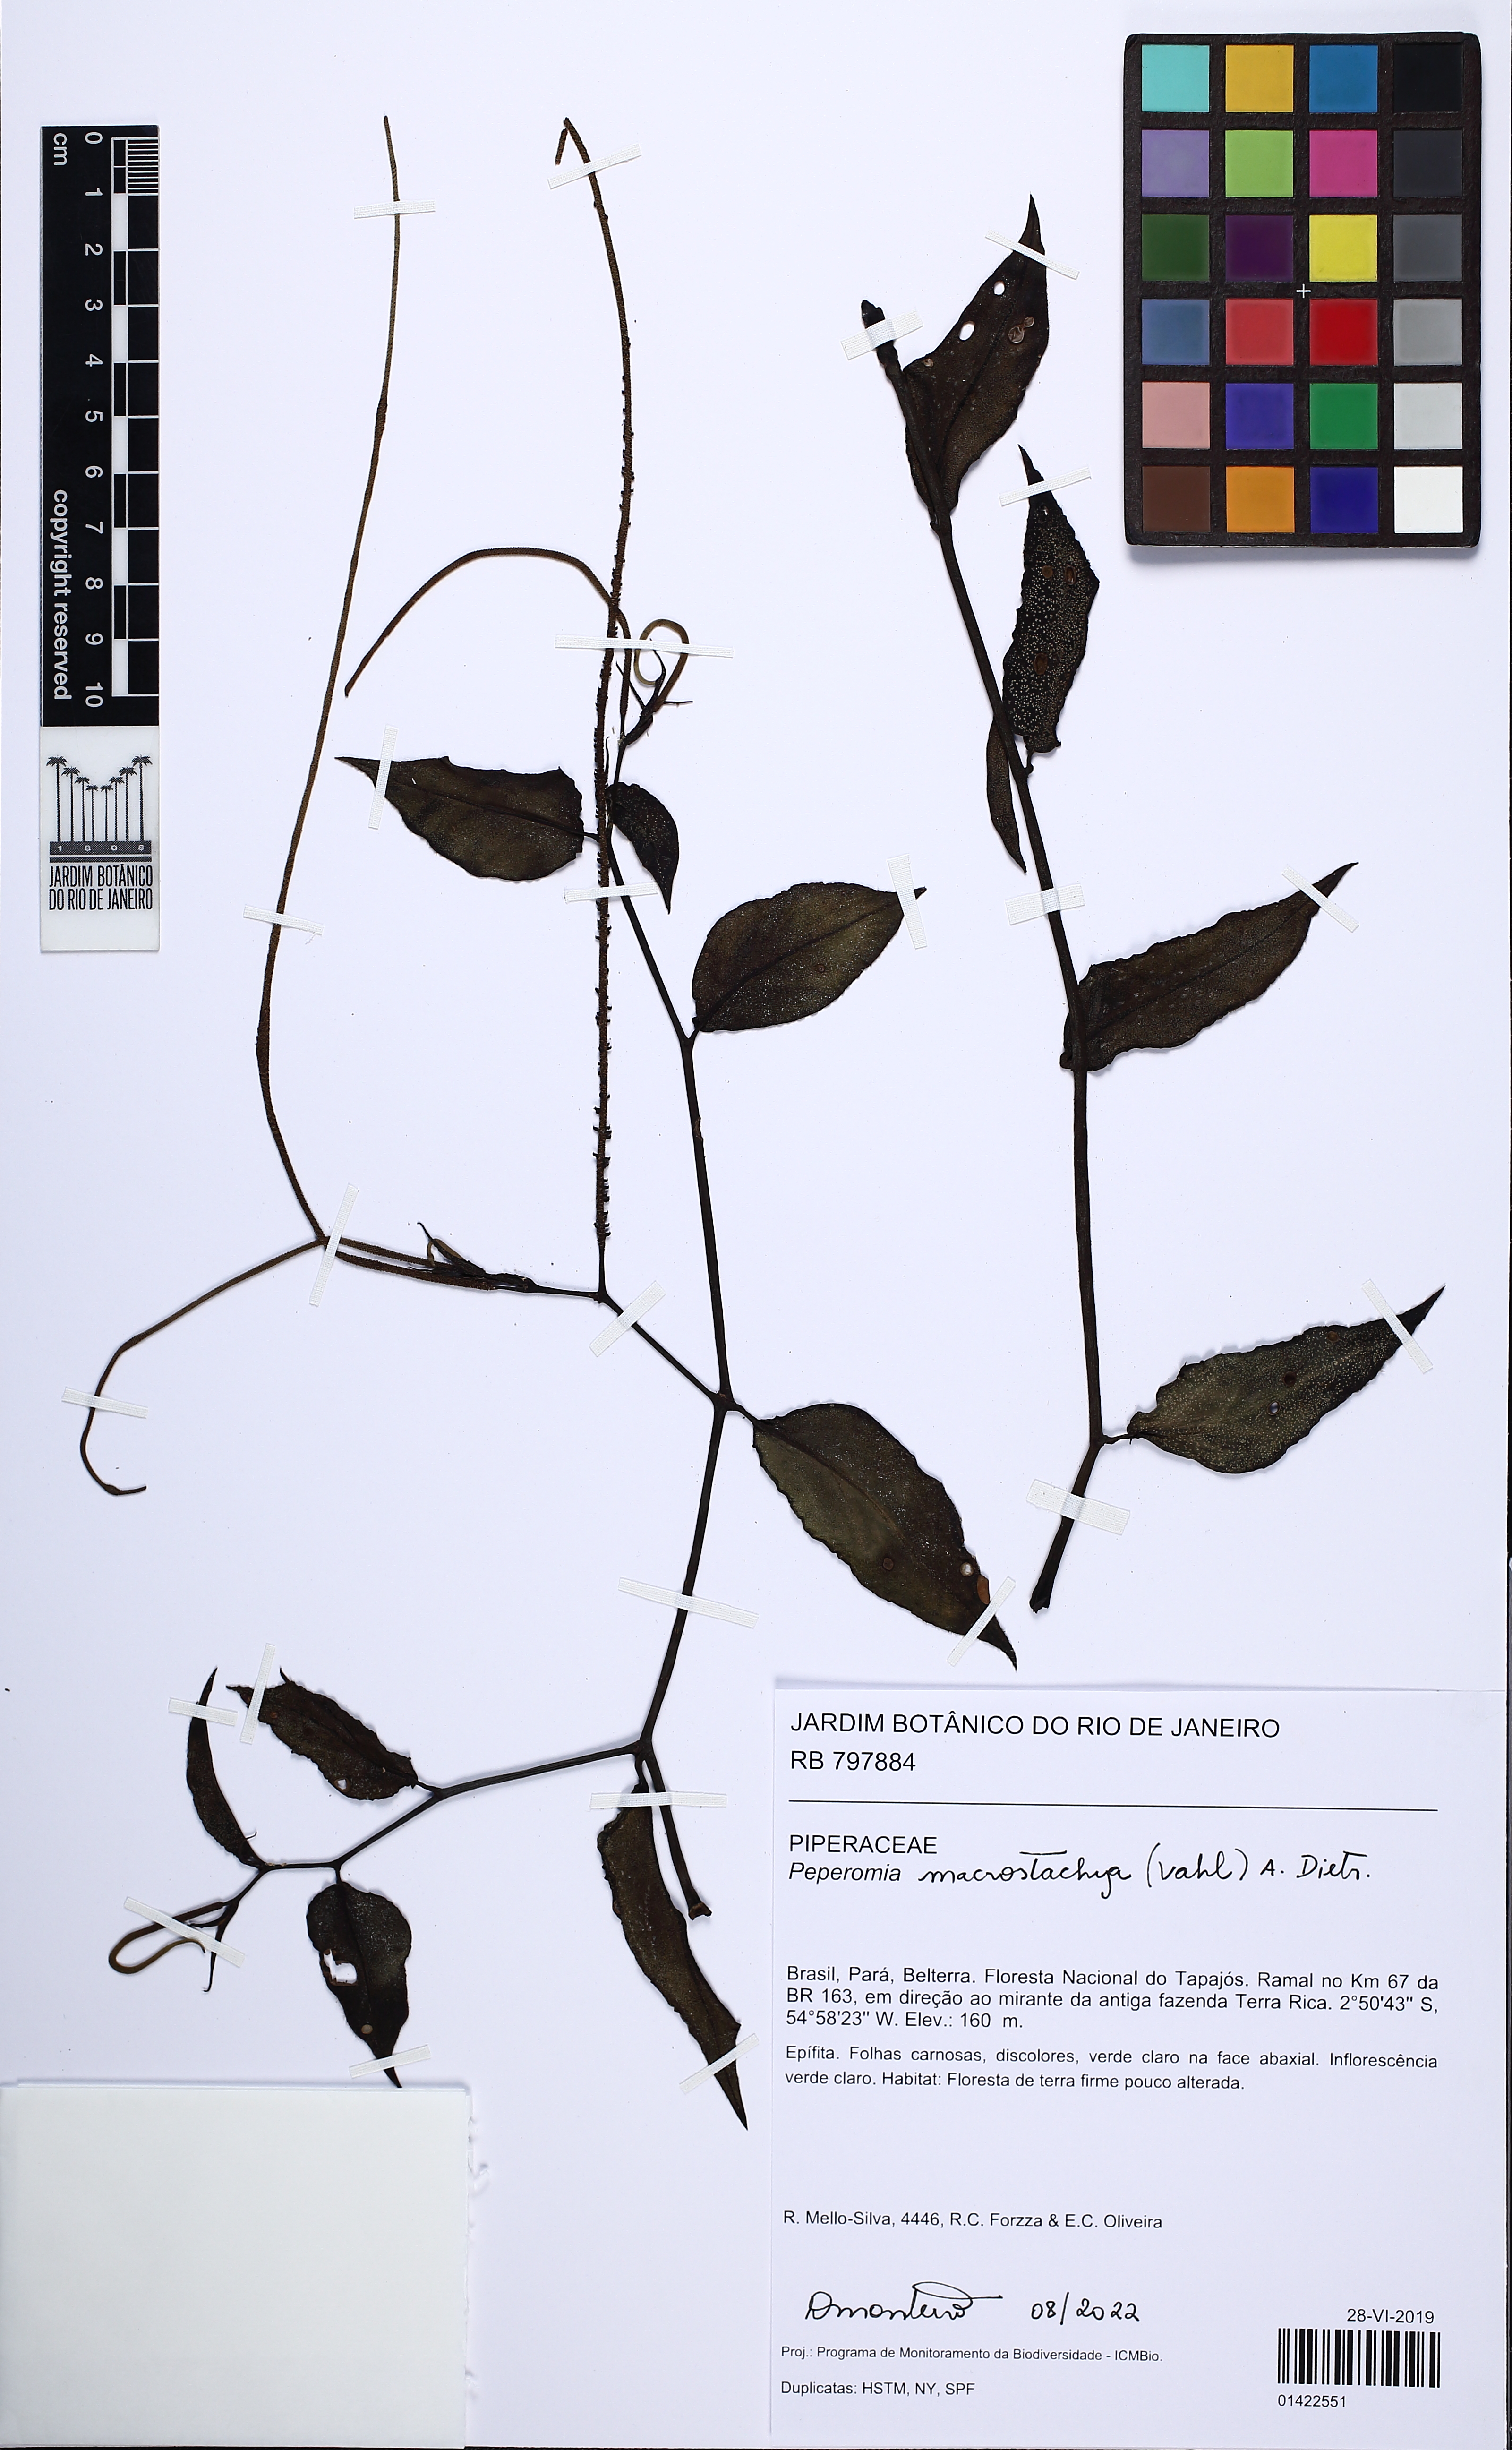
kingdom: Plantae
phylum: Tracheophyta
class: Magnoliopsida
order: Piperales
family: Piperaceae
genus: Peperomia
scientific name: Peperomia macrostachyos
